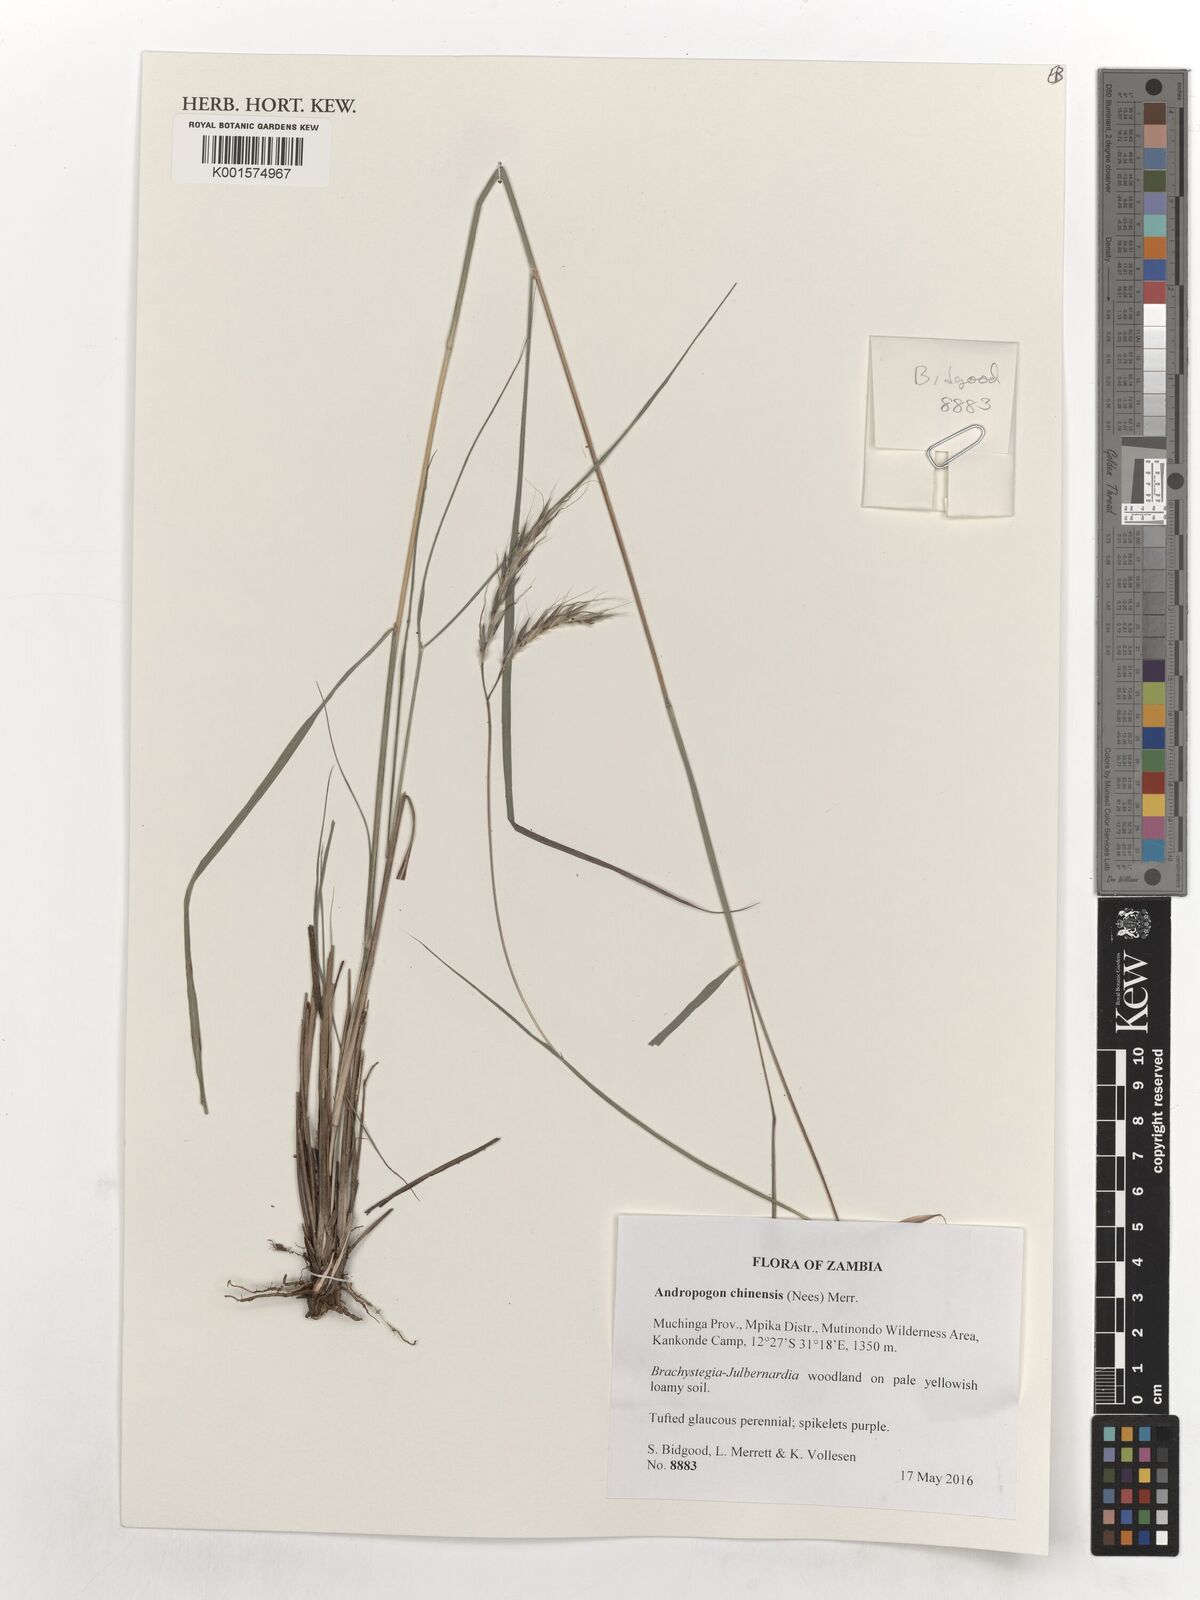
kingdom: Plantae
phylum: Tracheophyta
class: Liliopsida
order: Poales
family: Poaceae
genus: Andropogon
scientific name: Andropogon chinensis
